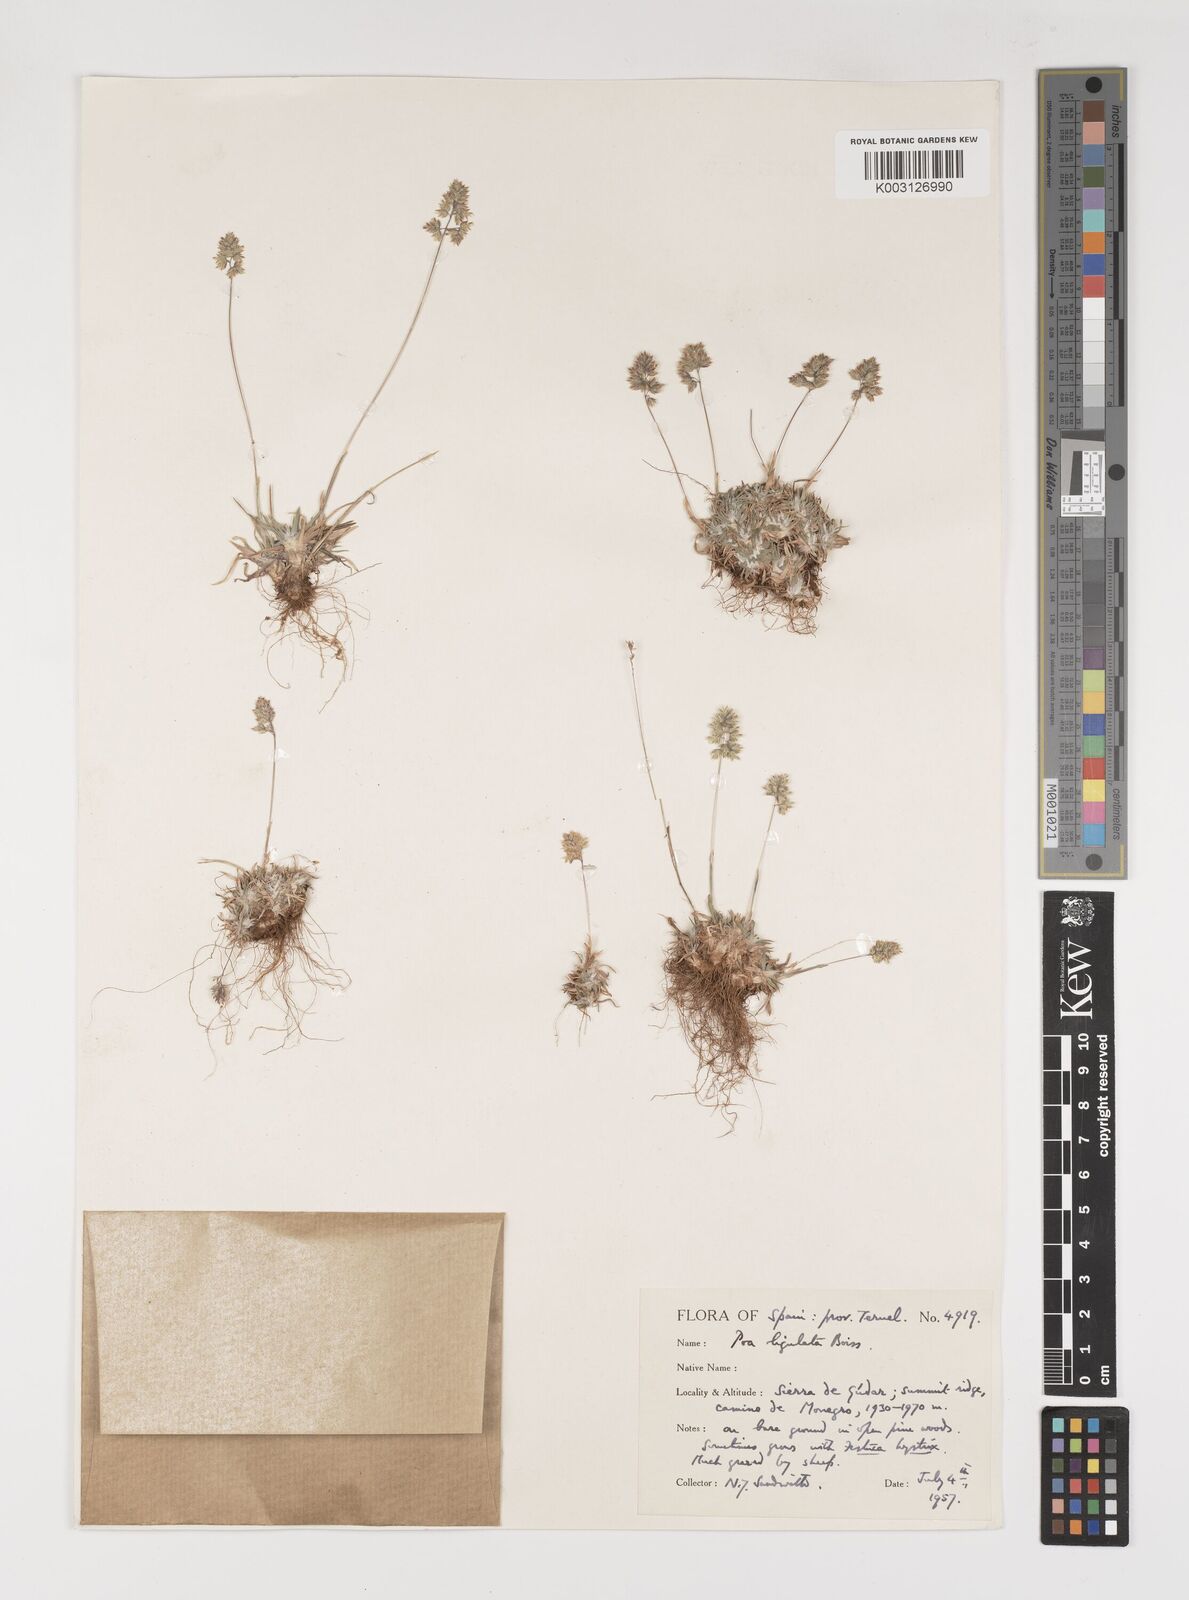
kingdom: Plantae
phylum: Tracheophyta
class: Liliopsida
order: Poales
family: Poaceae
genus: Poa
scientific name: Poa ligulata
